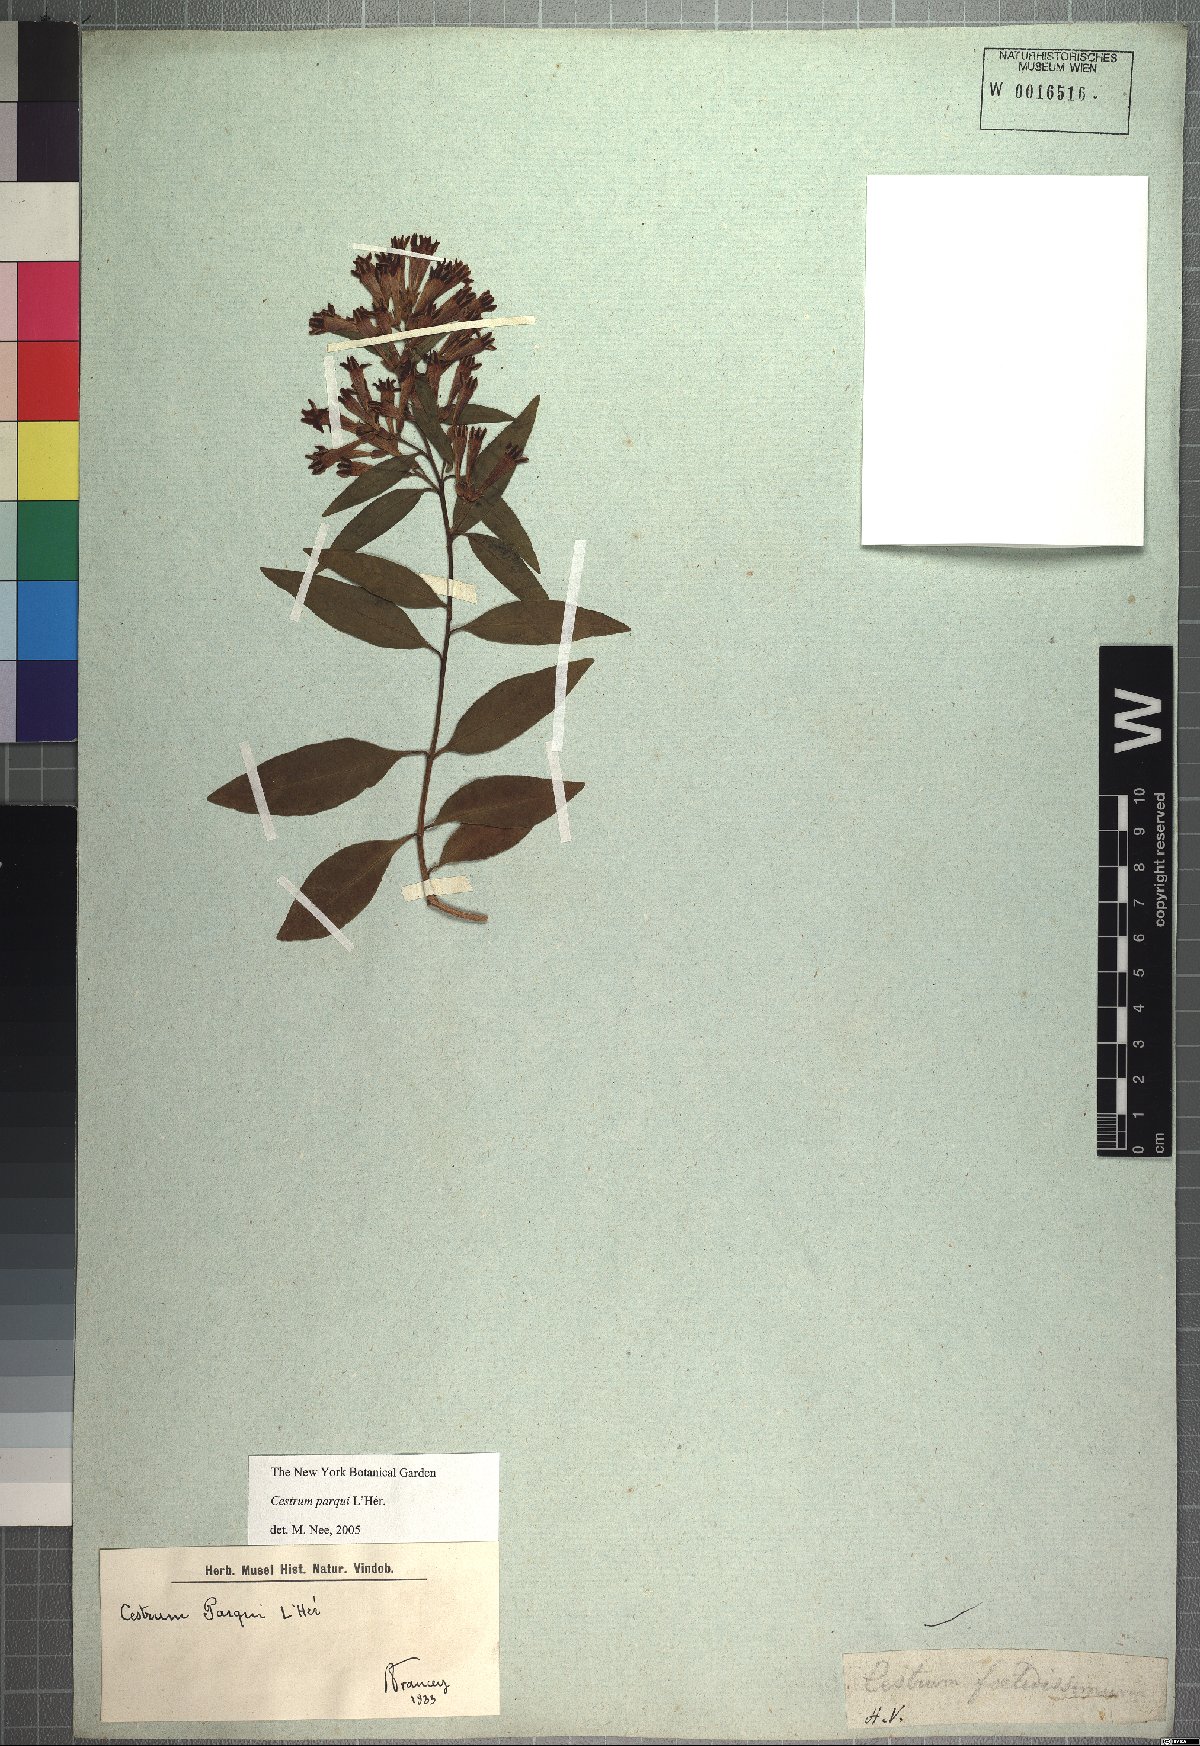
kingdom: Plantae
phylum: Tracheophyta
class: Magnoliopsida
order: Solanales
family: Solanaceae
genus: Cestrum
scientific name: Cestrum thyrsoideum
